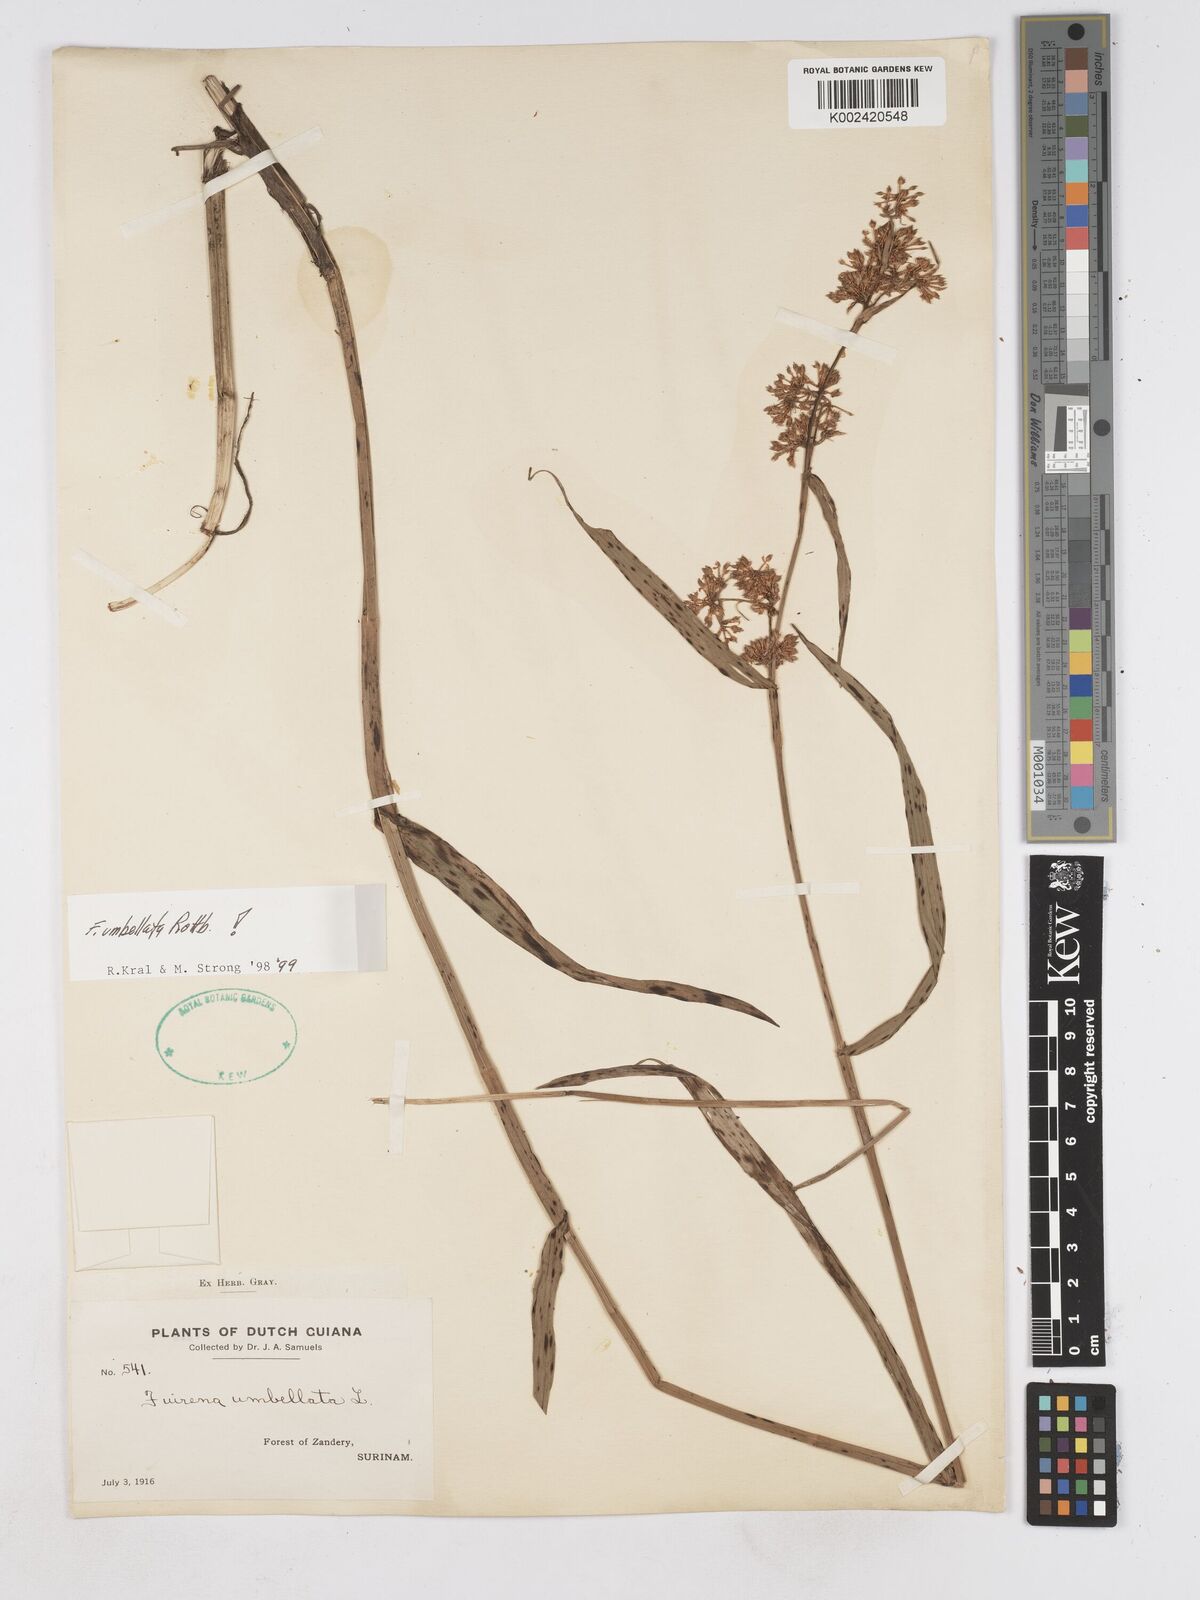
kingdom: Plantae
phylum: Tracheophyta
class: Liliopsida
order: Poales
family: Cyperaceae
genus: Fuirena
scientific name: Fuirena umbellata
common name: Yefen
